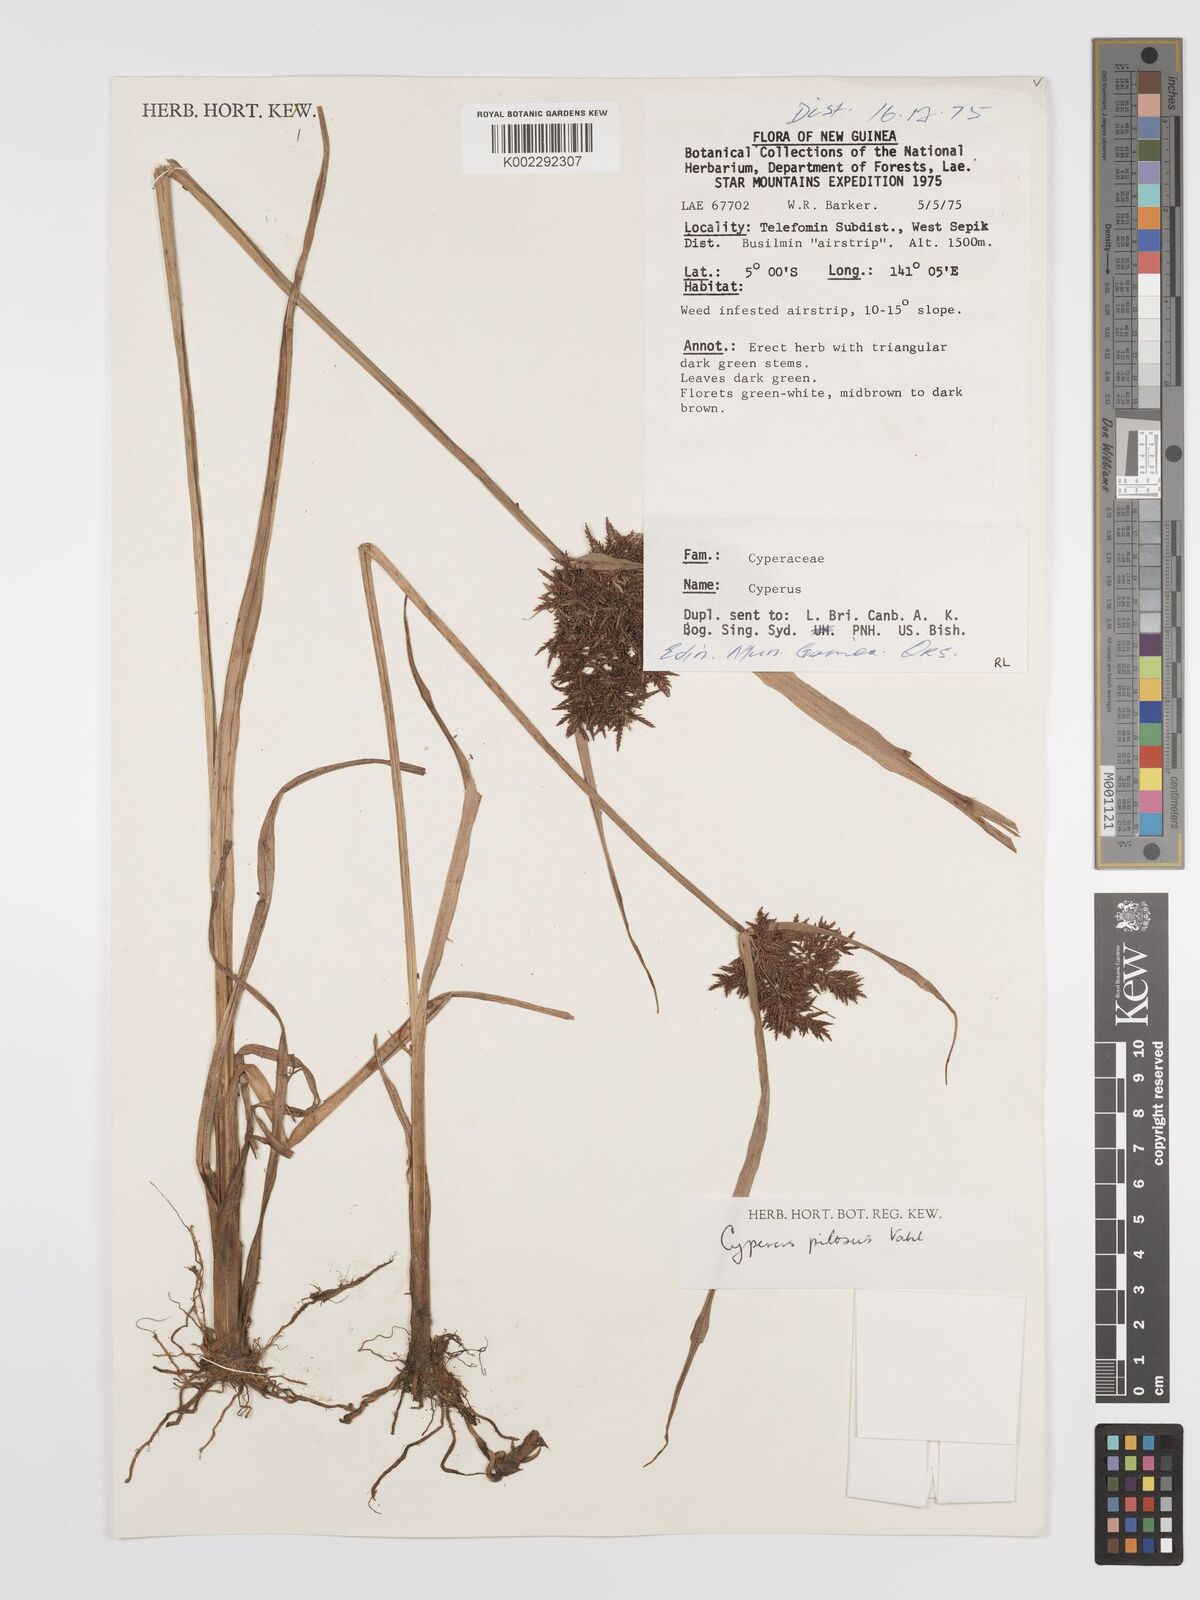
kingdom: Plantae
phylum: Tracheophyta
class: Liliopsida
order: Poales
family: Cyperaceae
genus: Cyperus
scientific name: Cyperus pilosus
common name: Fuzzy flatsedge
